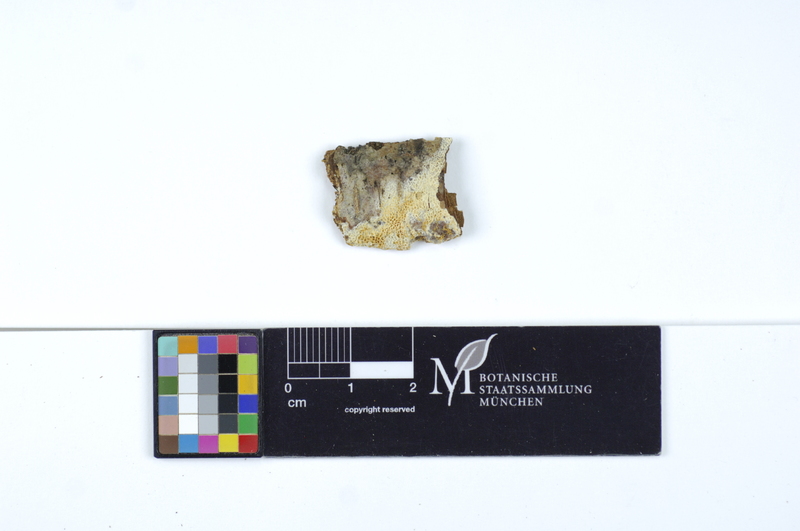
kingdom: Plantae
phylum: Tracheophyta
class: Magnoliopsida
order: Fagales
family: Betulaceae
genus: Alnus
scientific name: Alnus glutinosa
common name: Black alder
